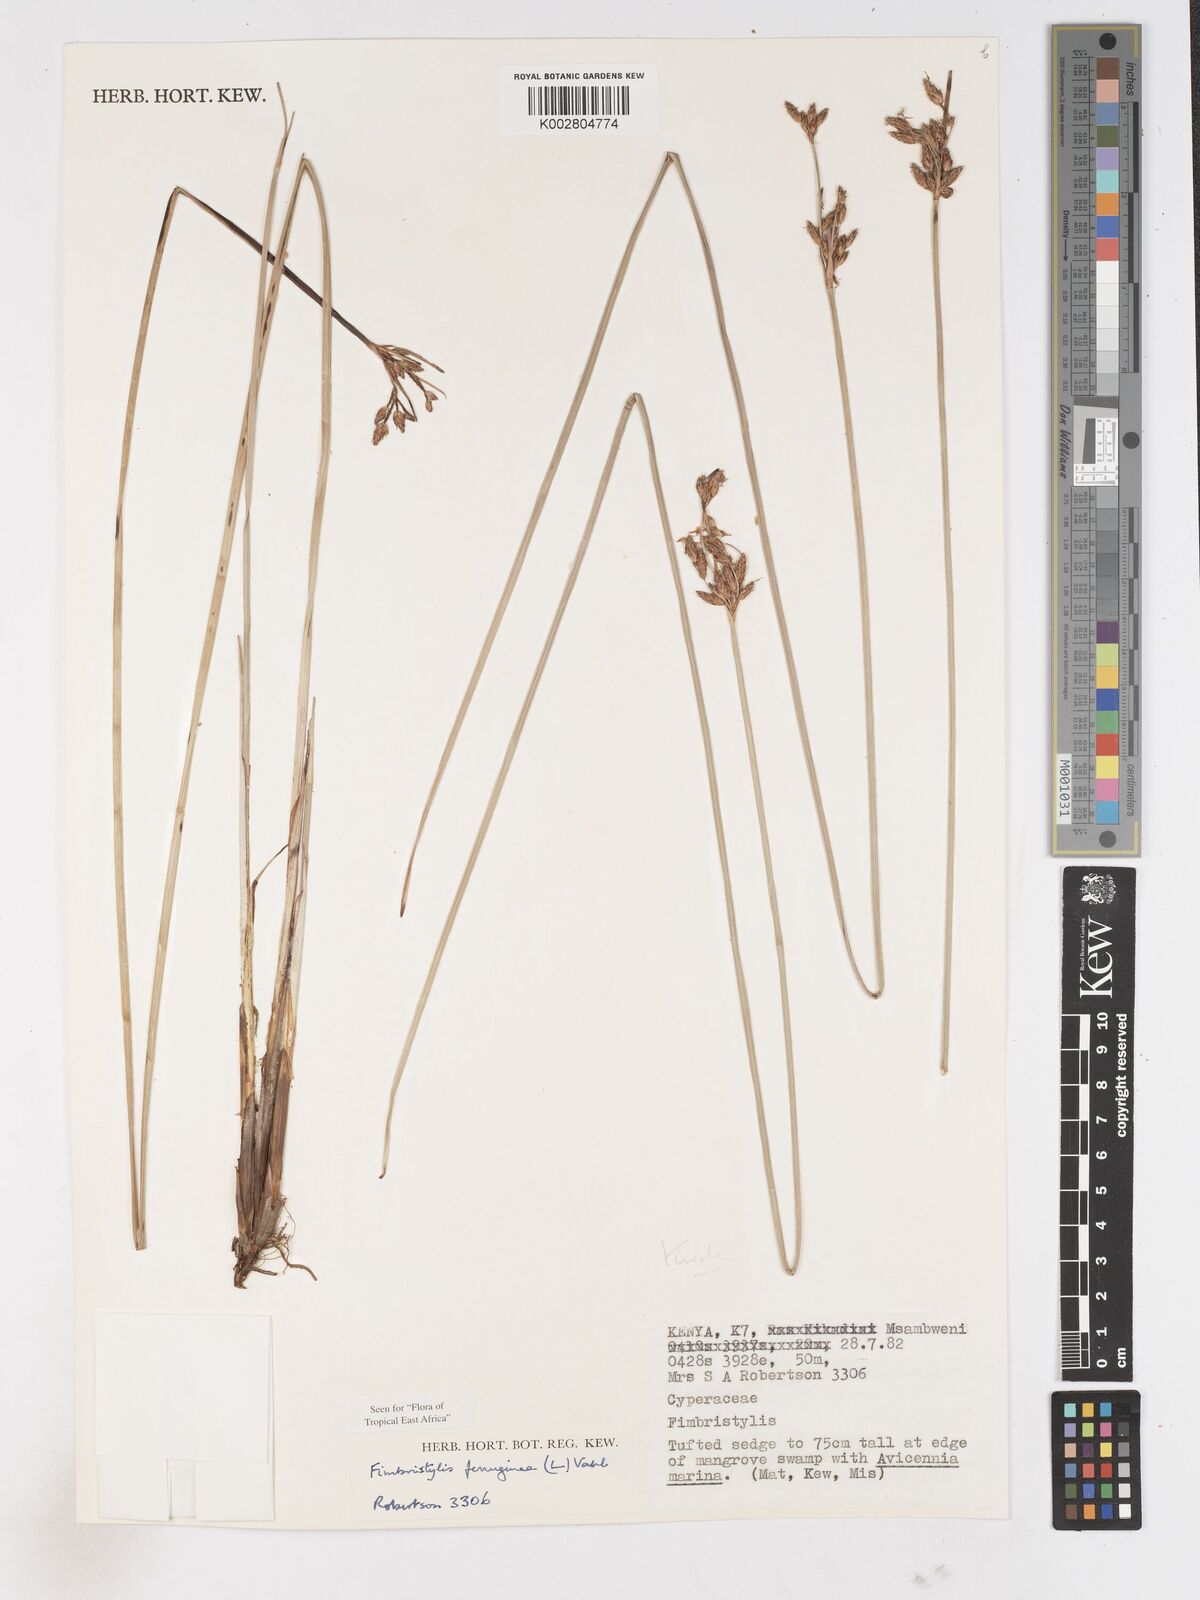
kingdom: Plantae
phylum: Tracheophyta
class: Liliopsida
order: Poales
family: Cyperaceae
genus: Fimbristylis
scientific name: Fimbristylis ferruginea
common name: West indian fimbry
